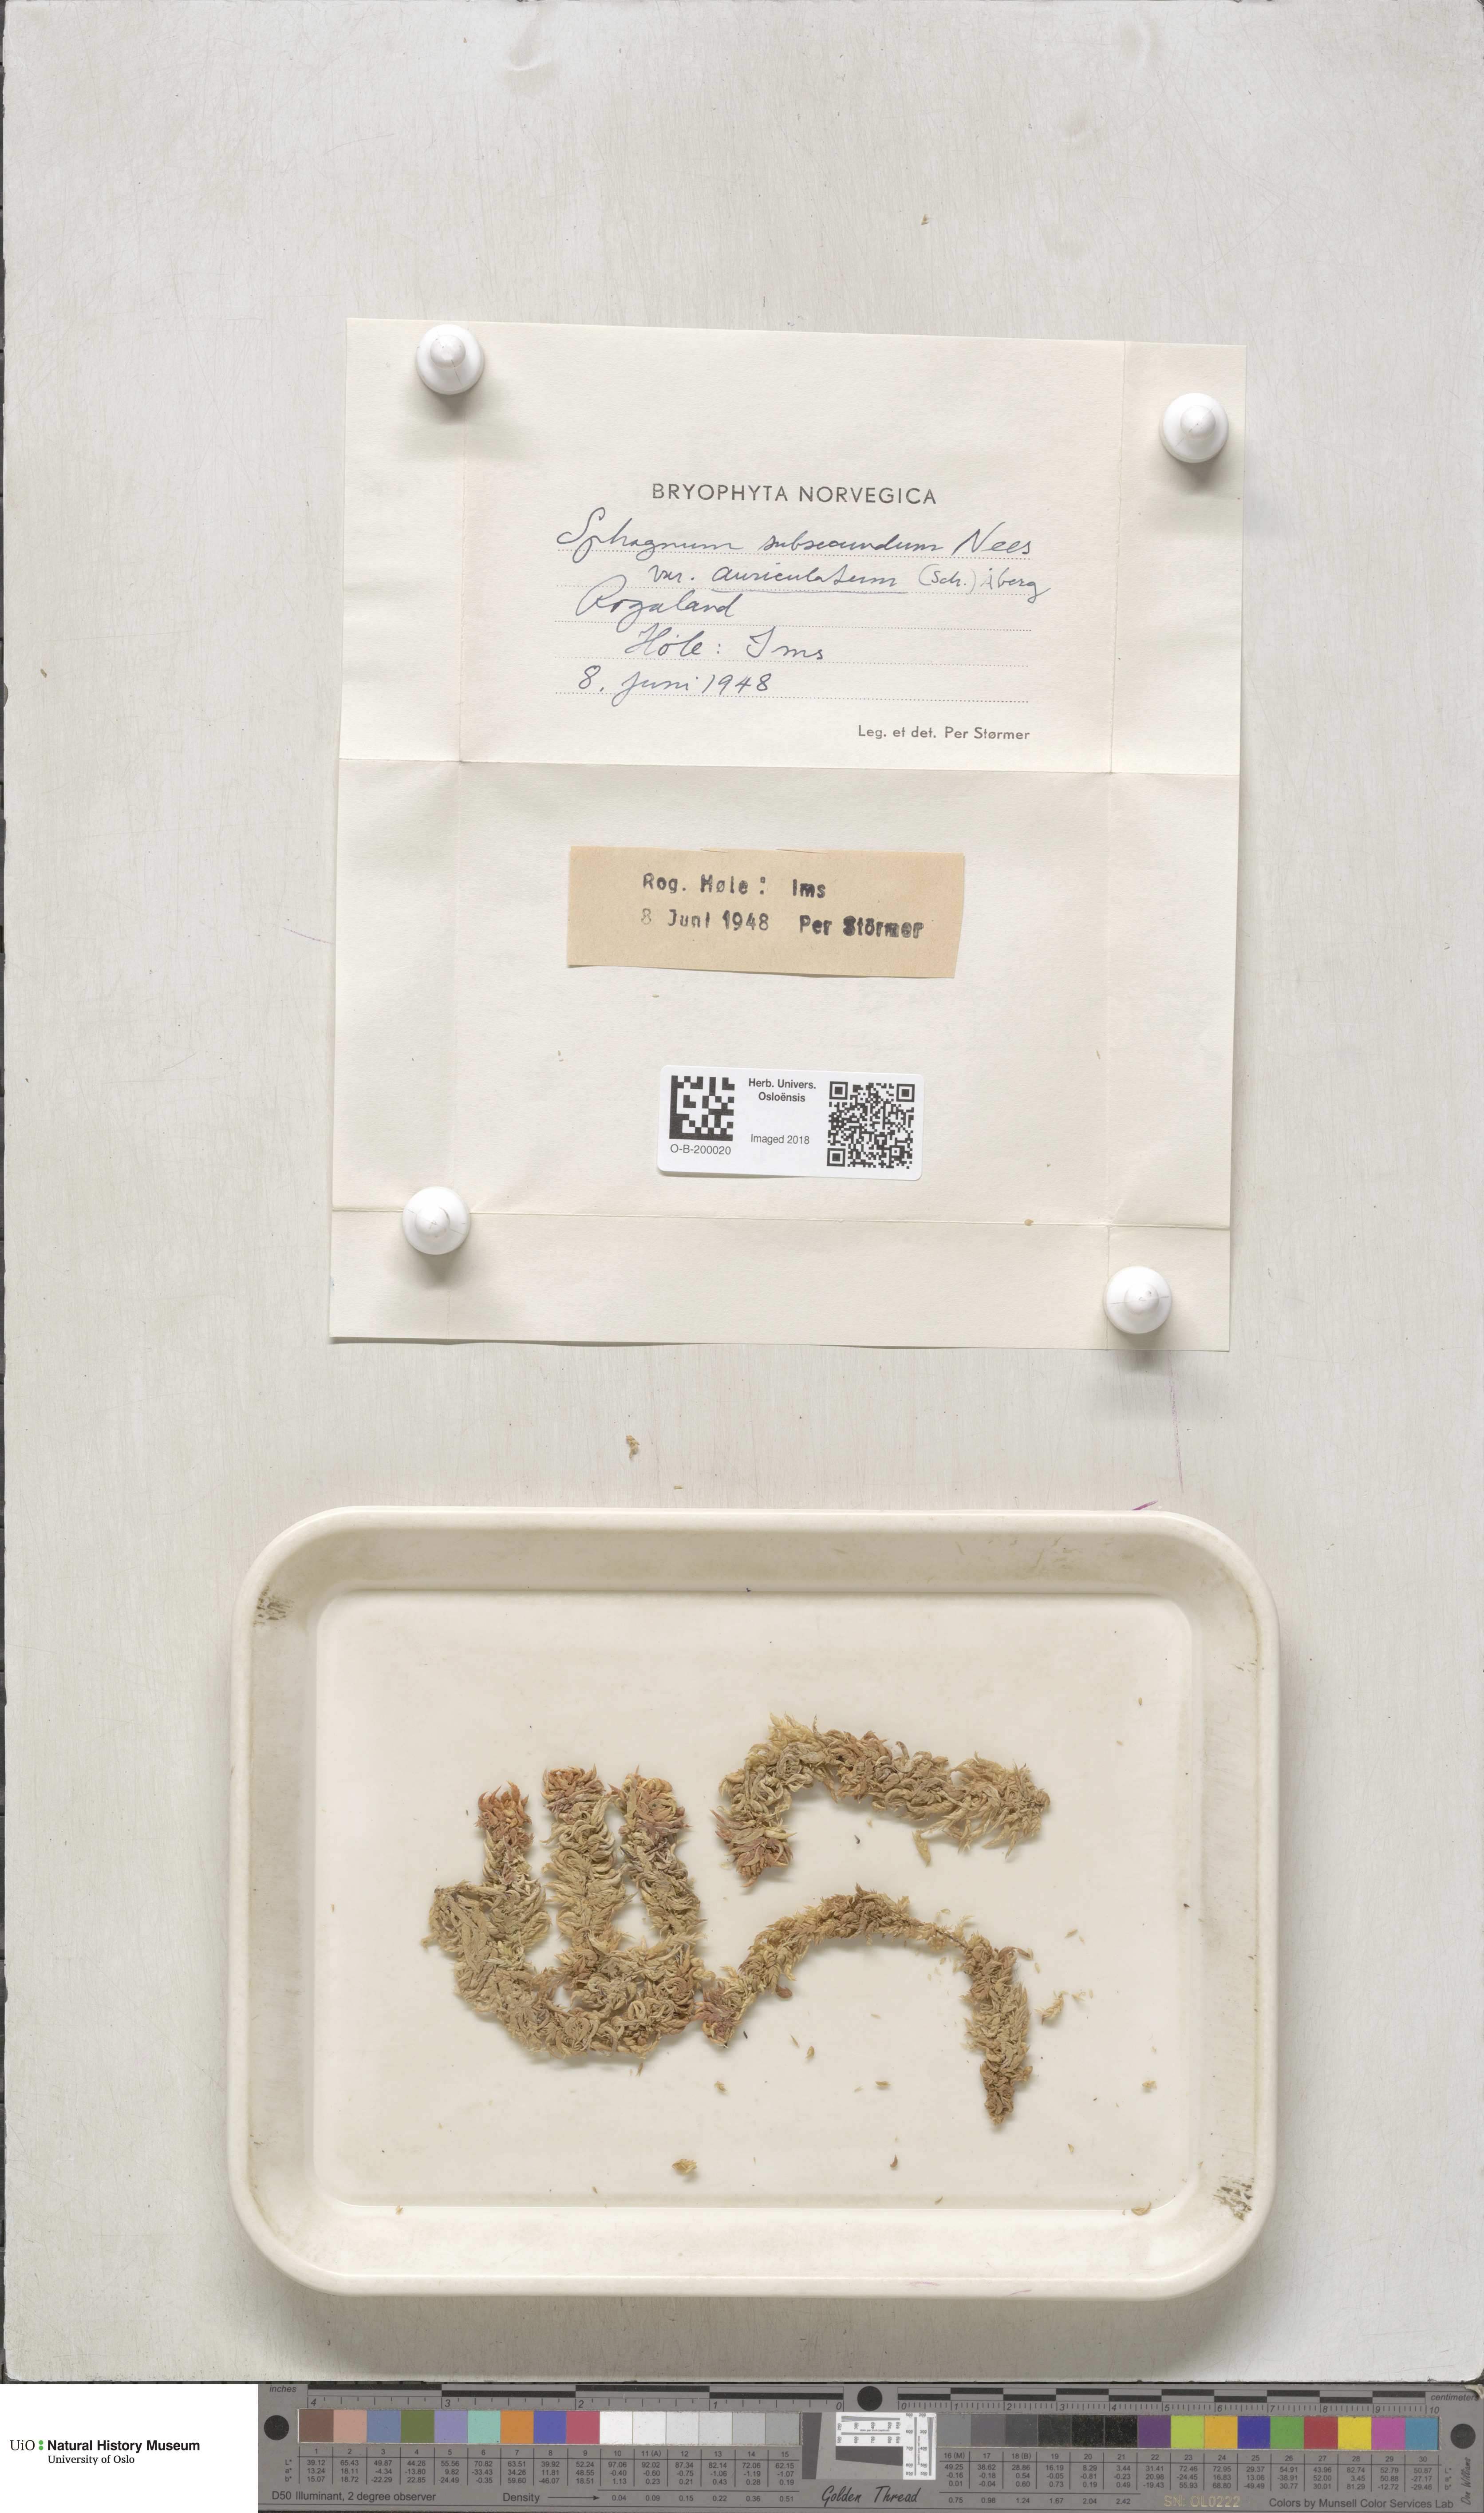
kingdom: Plantae
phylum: Bryophyta
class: Sphagnopsida
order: Sphagnales
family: Sphagnaceae
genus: Sphagnum
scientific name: Sphagnum denticulatum
